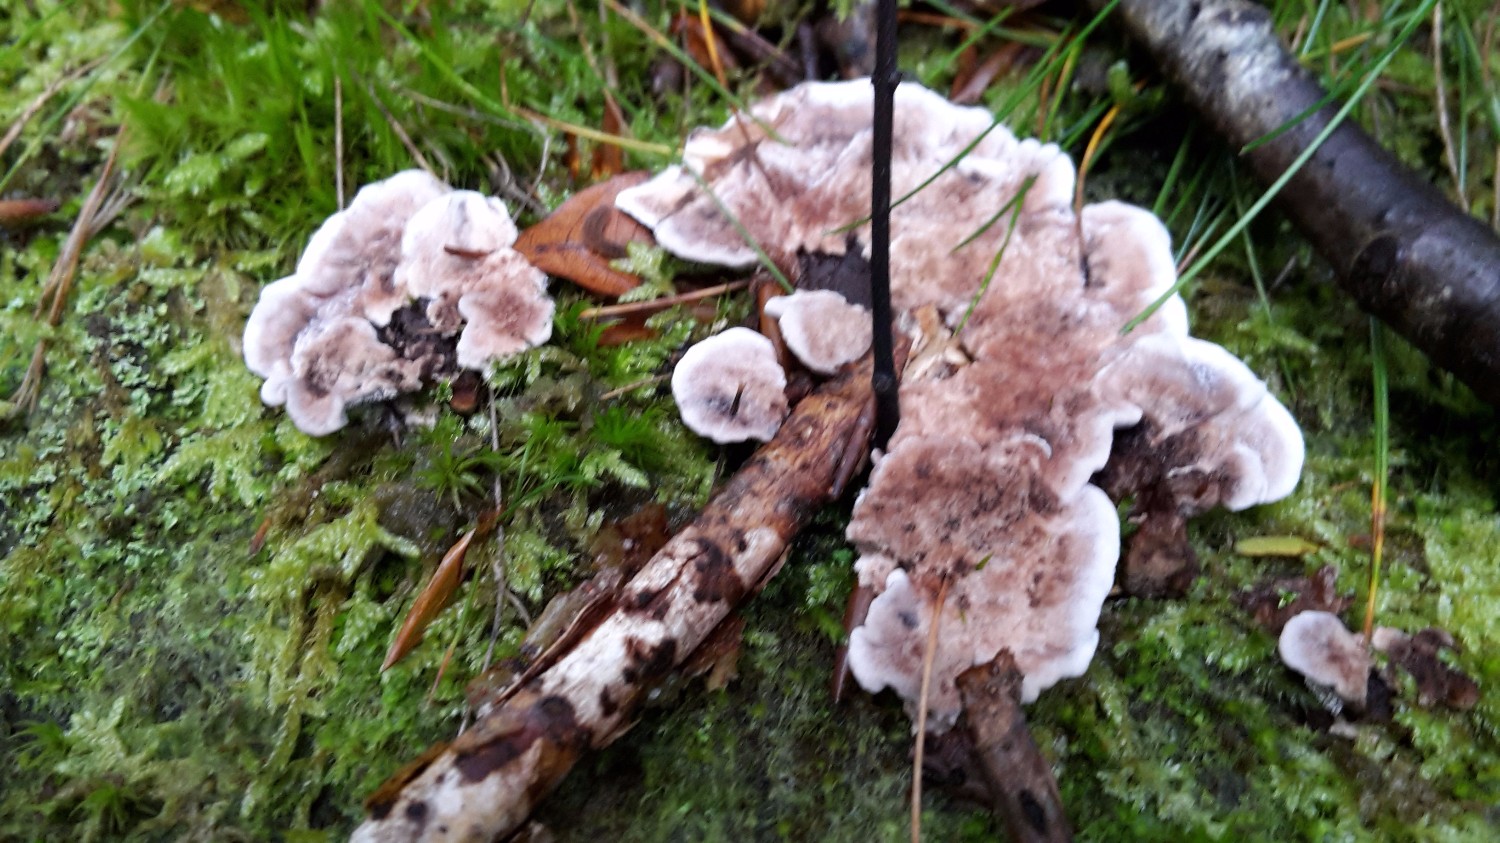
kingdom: Fungi
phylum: Basidiomycota
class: Agaricomycetes
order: Thelephorales
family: Thelephoraceae
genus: Phellodon
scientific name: Phellodon confluens
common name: pjaltet duftpigsvamp
